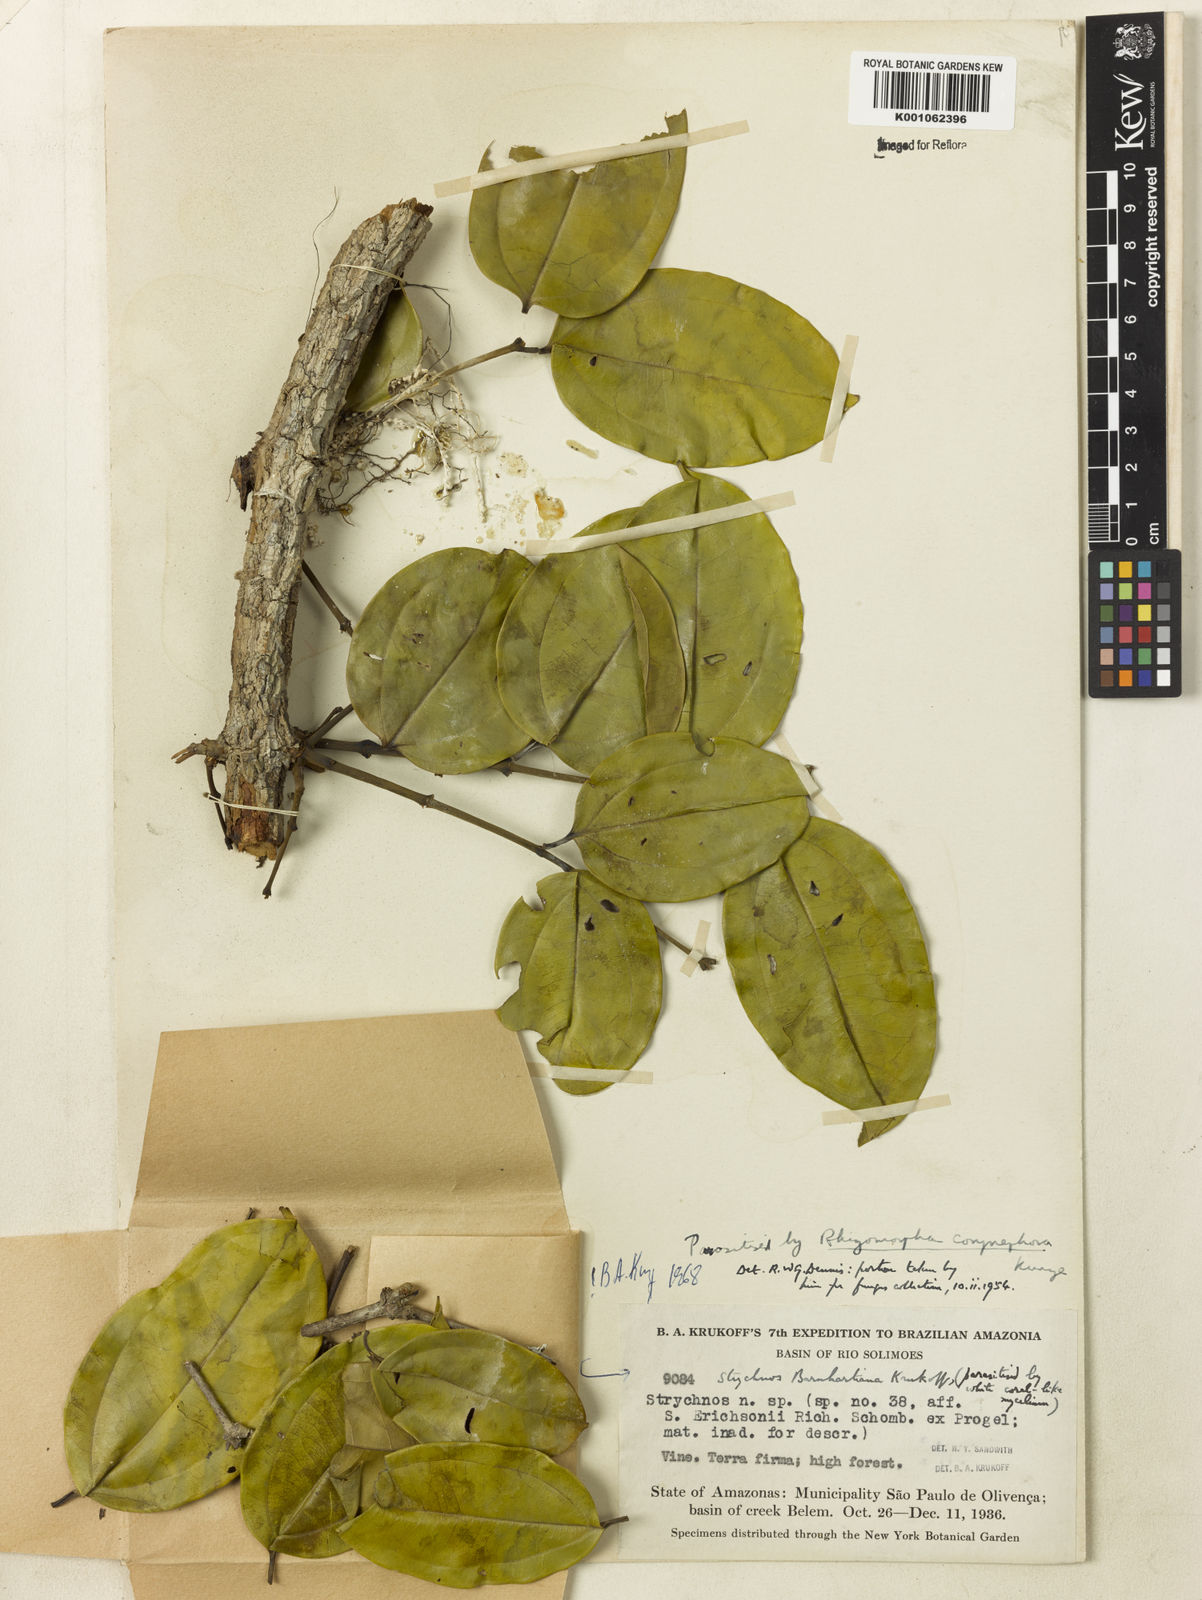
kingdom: Plantae
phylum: Tracheophyta
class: Magnoliopsida
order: Gentianales
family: Loganiaceae
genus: Strychnos
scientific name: Strychnos barnhartiana
